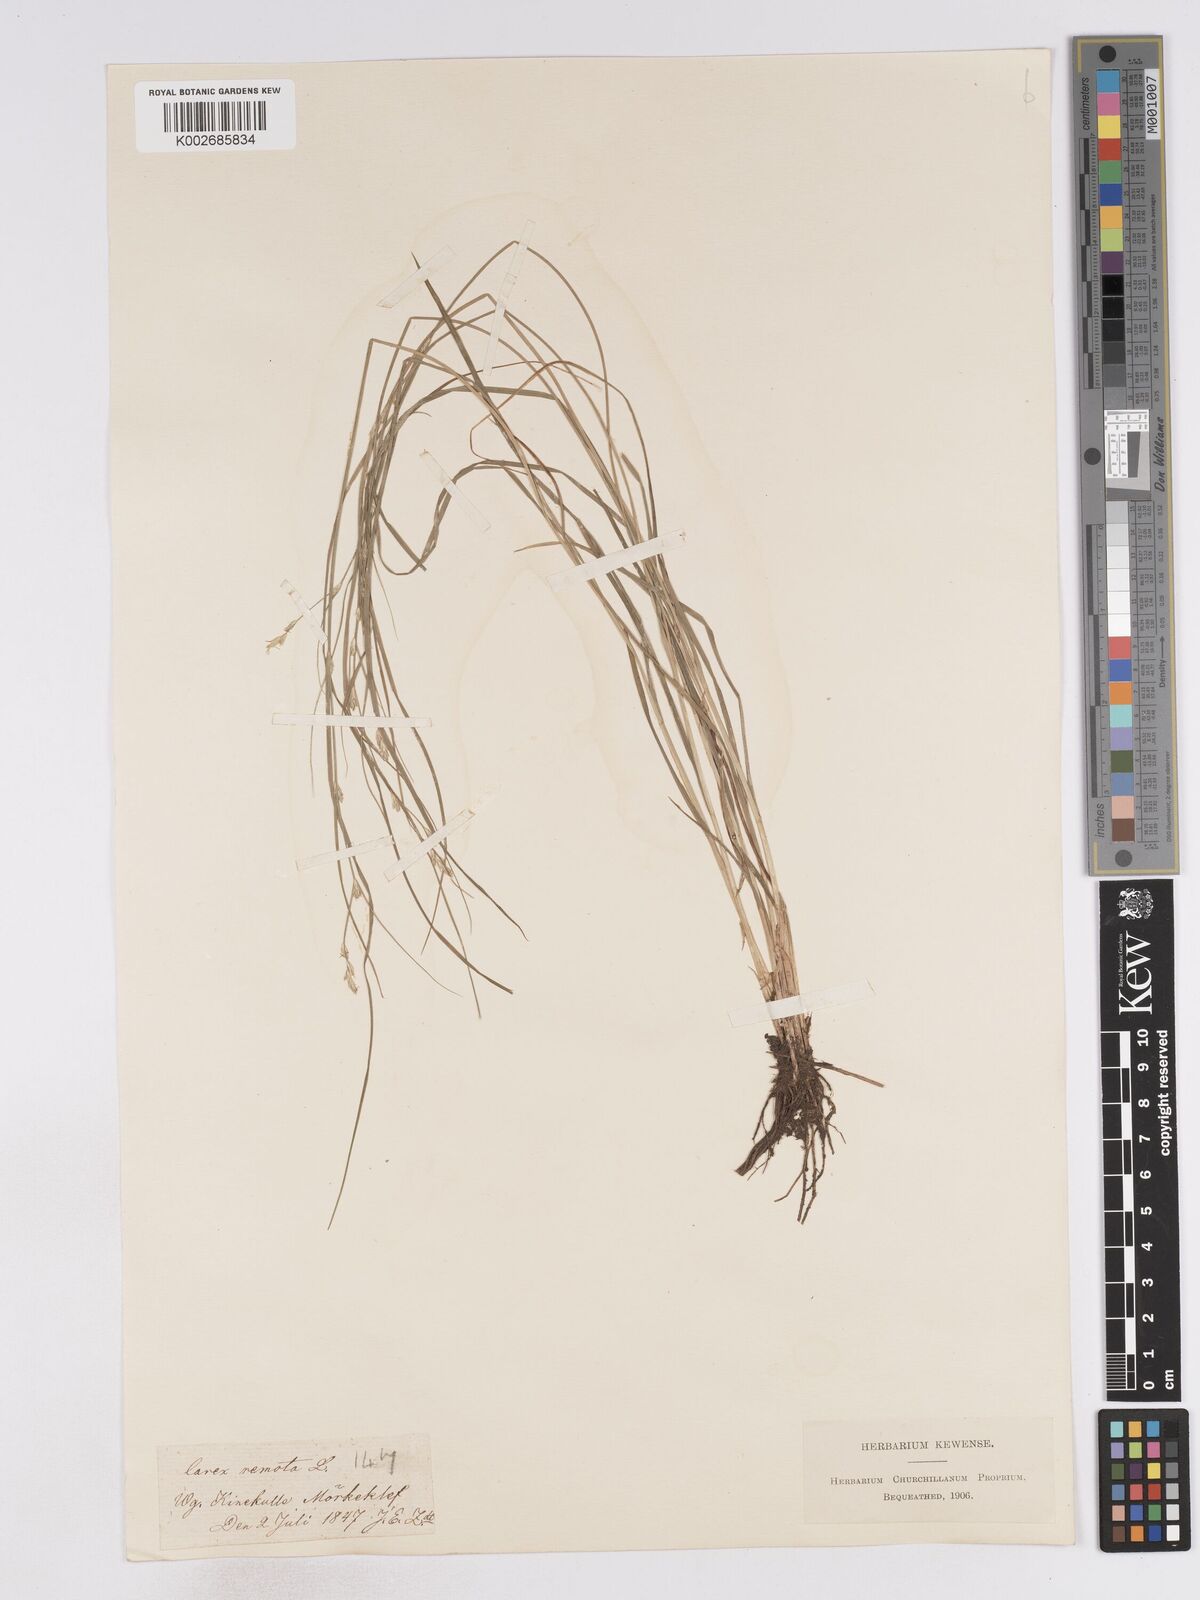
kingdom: Plantae
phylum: Tracheophyta
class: Liliopsida
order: Poales
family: Cyperaceae
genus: Carex
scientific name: Carex remota
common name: Remote sedge
